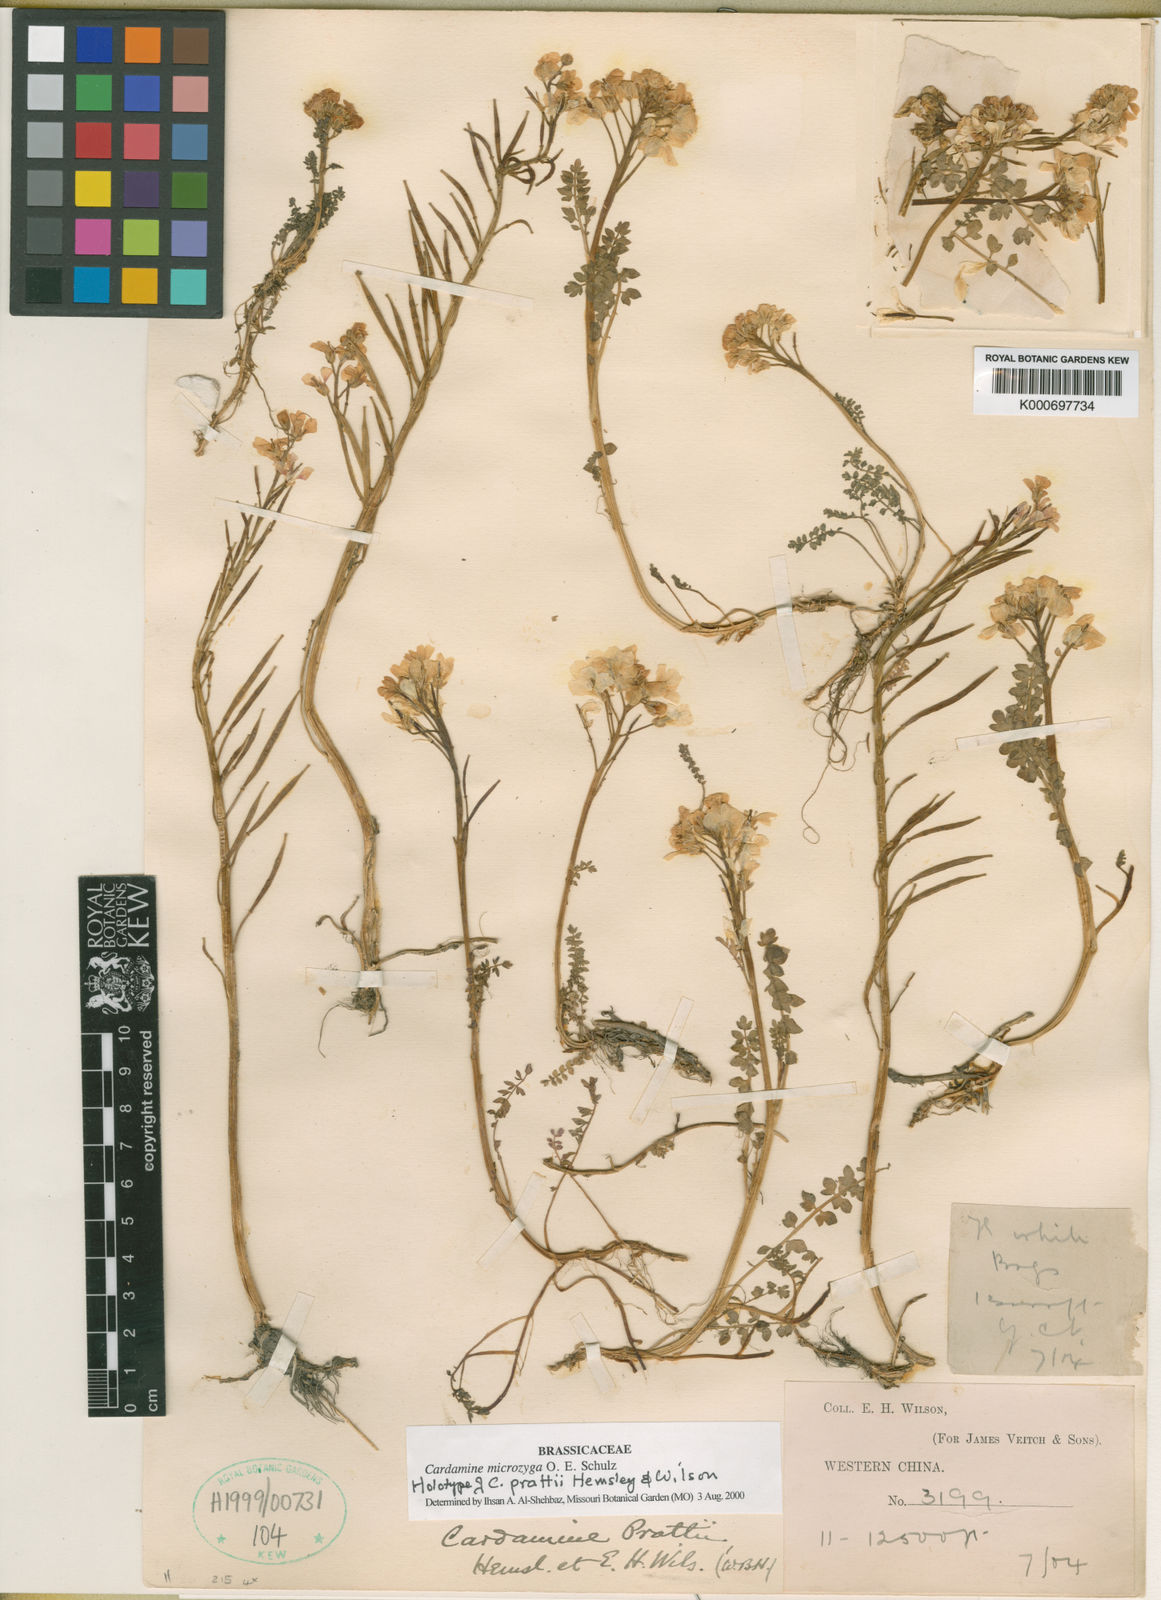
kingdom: Plantae
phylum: Tracheophyta
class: Magnoliopsida
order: Brassicales
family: Brassicaceae
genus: Cardamine
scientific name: Cardamine microzyga
